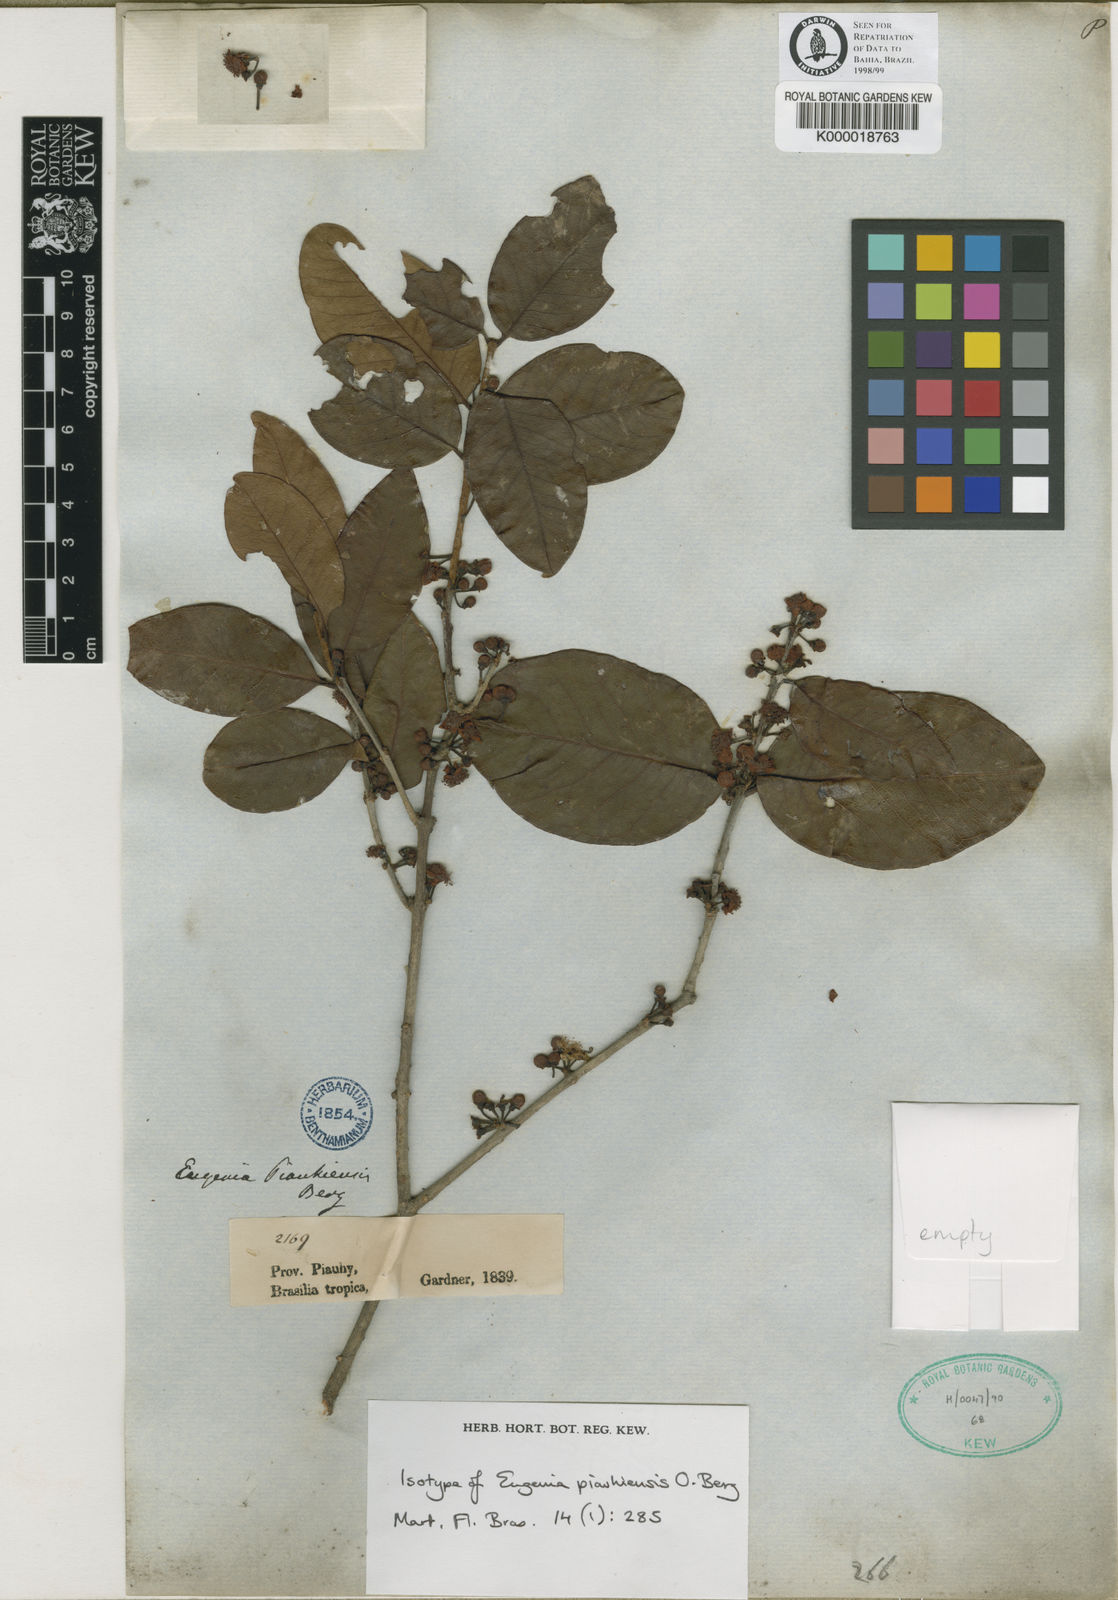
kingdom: Plantae
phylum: Tracheophyta
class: Magnoliopsida
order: Myrtales
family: Myrtaceae
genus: Eugenia
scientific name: Eugenia
